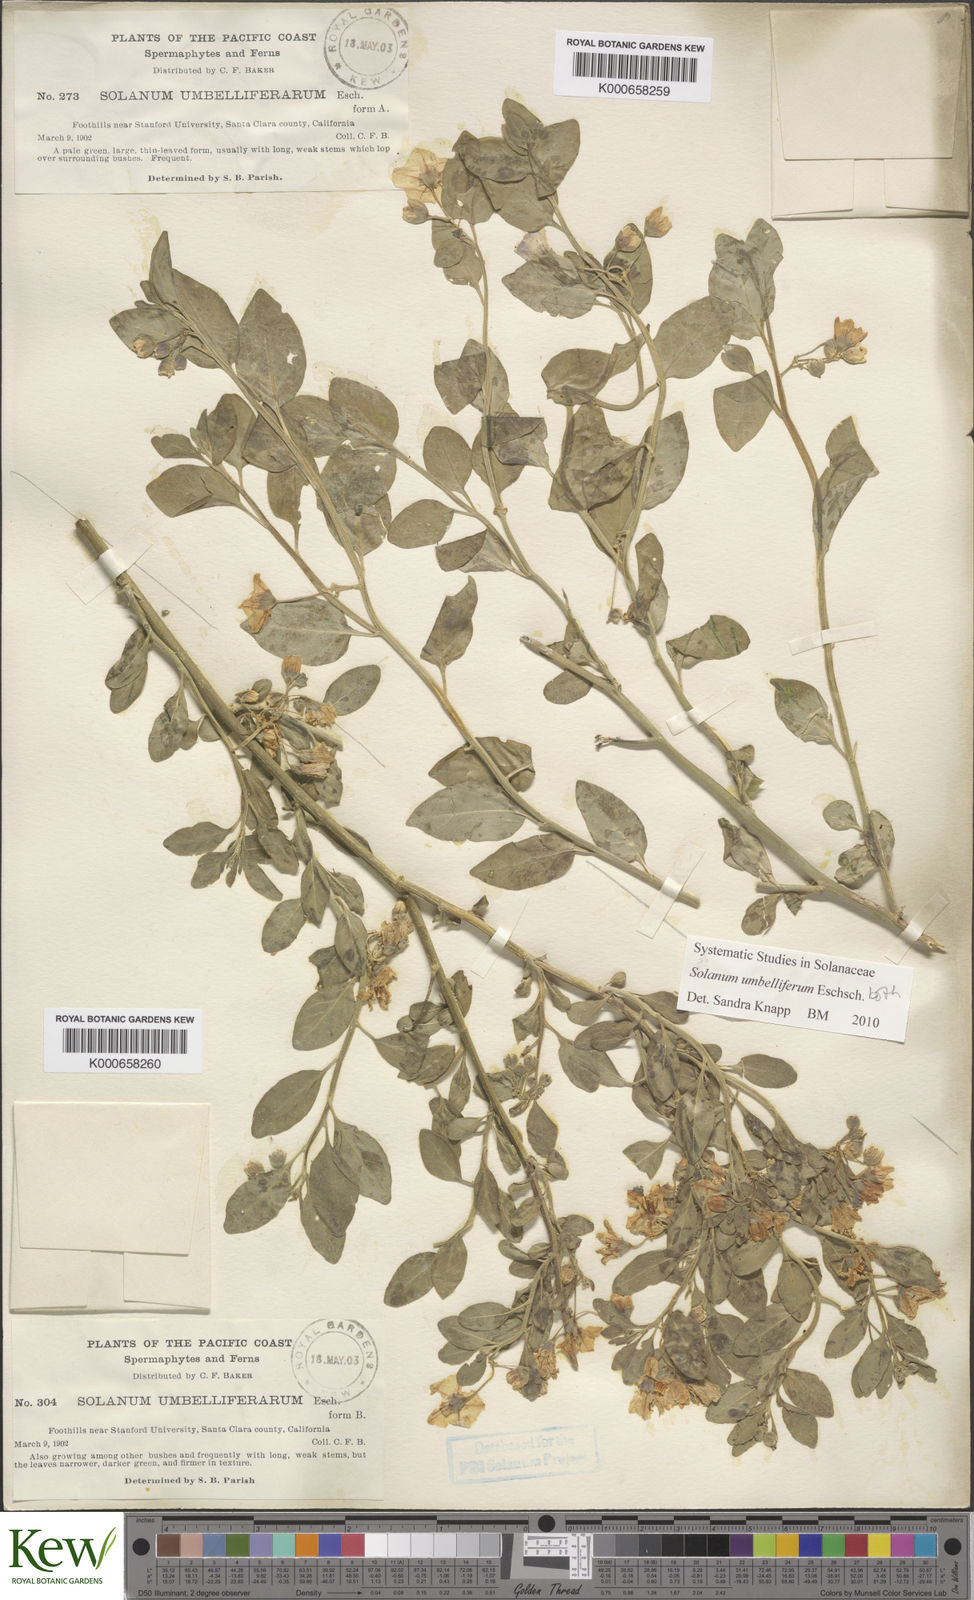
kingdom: Plantae
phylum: Tracheophyta
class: Magnoliopsida
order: Solanales
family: Solanaceae
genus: Solanum
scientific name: Solanum umbelliferum
